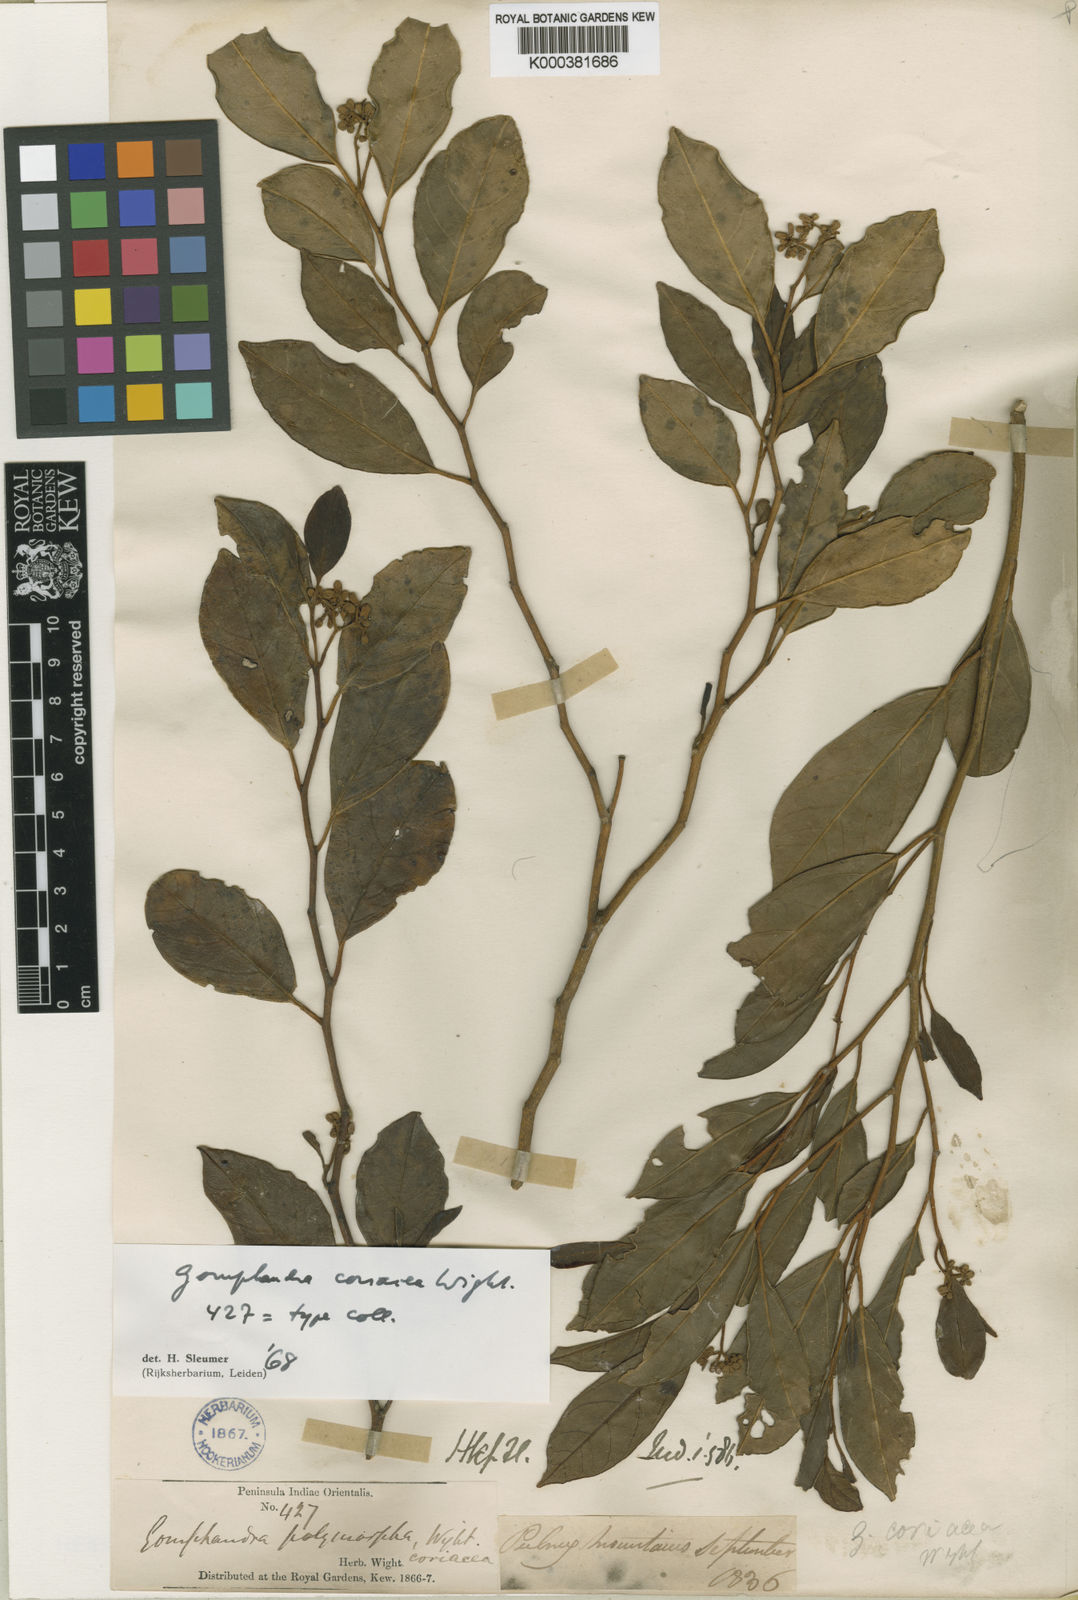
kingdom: Plantae
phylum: Tracheophyta
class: Magnoliopsida
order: Cardiopteridales
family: Stemonuraceae
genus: Gomphandra
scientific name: Gomphandra coriacea
